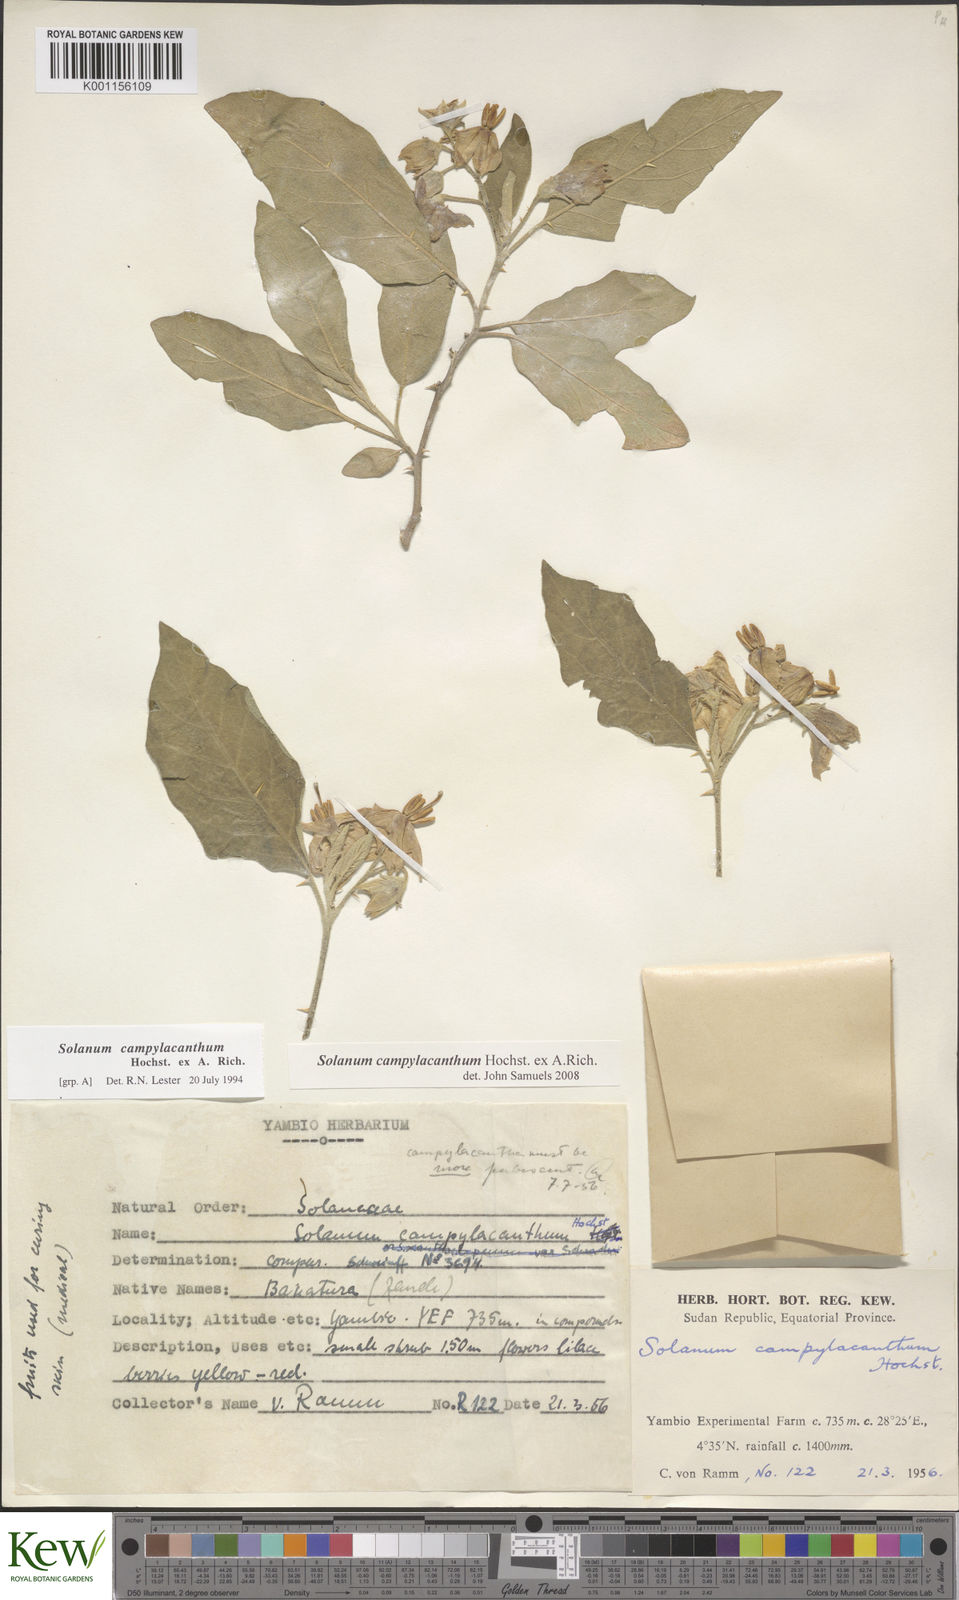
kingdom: Plantae
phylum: Tracheophyta
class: Magnoliopsida
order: Solanales
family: Solanaceae
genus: Solanum
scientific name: Solanum campylacanthum
